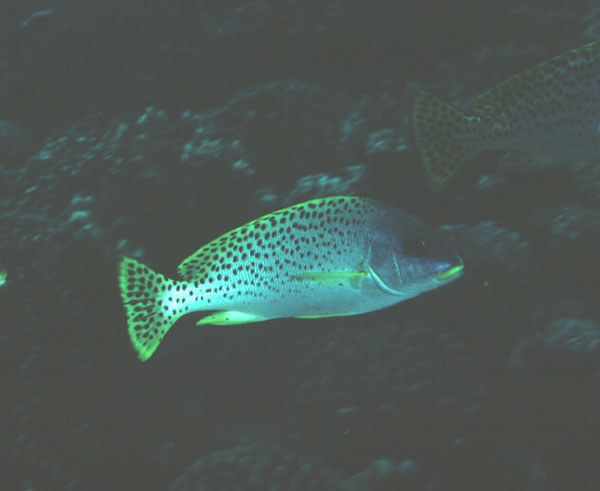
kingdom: Animalia
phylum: Chordata
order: Perciformes
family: Haemulidae
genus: Plectorhinchus
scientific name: Plectorhinchus gaterinus
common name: Blackspotted rubberlip
